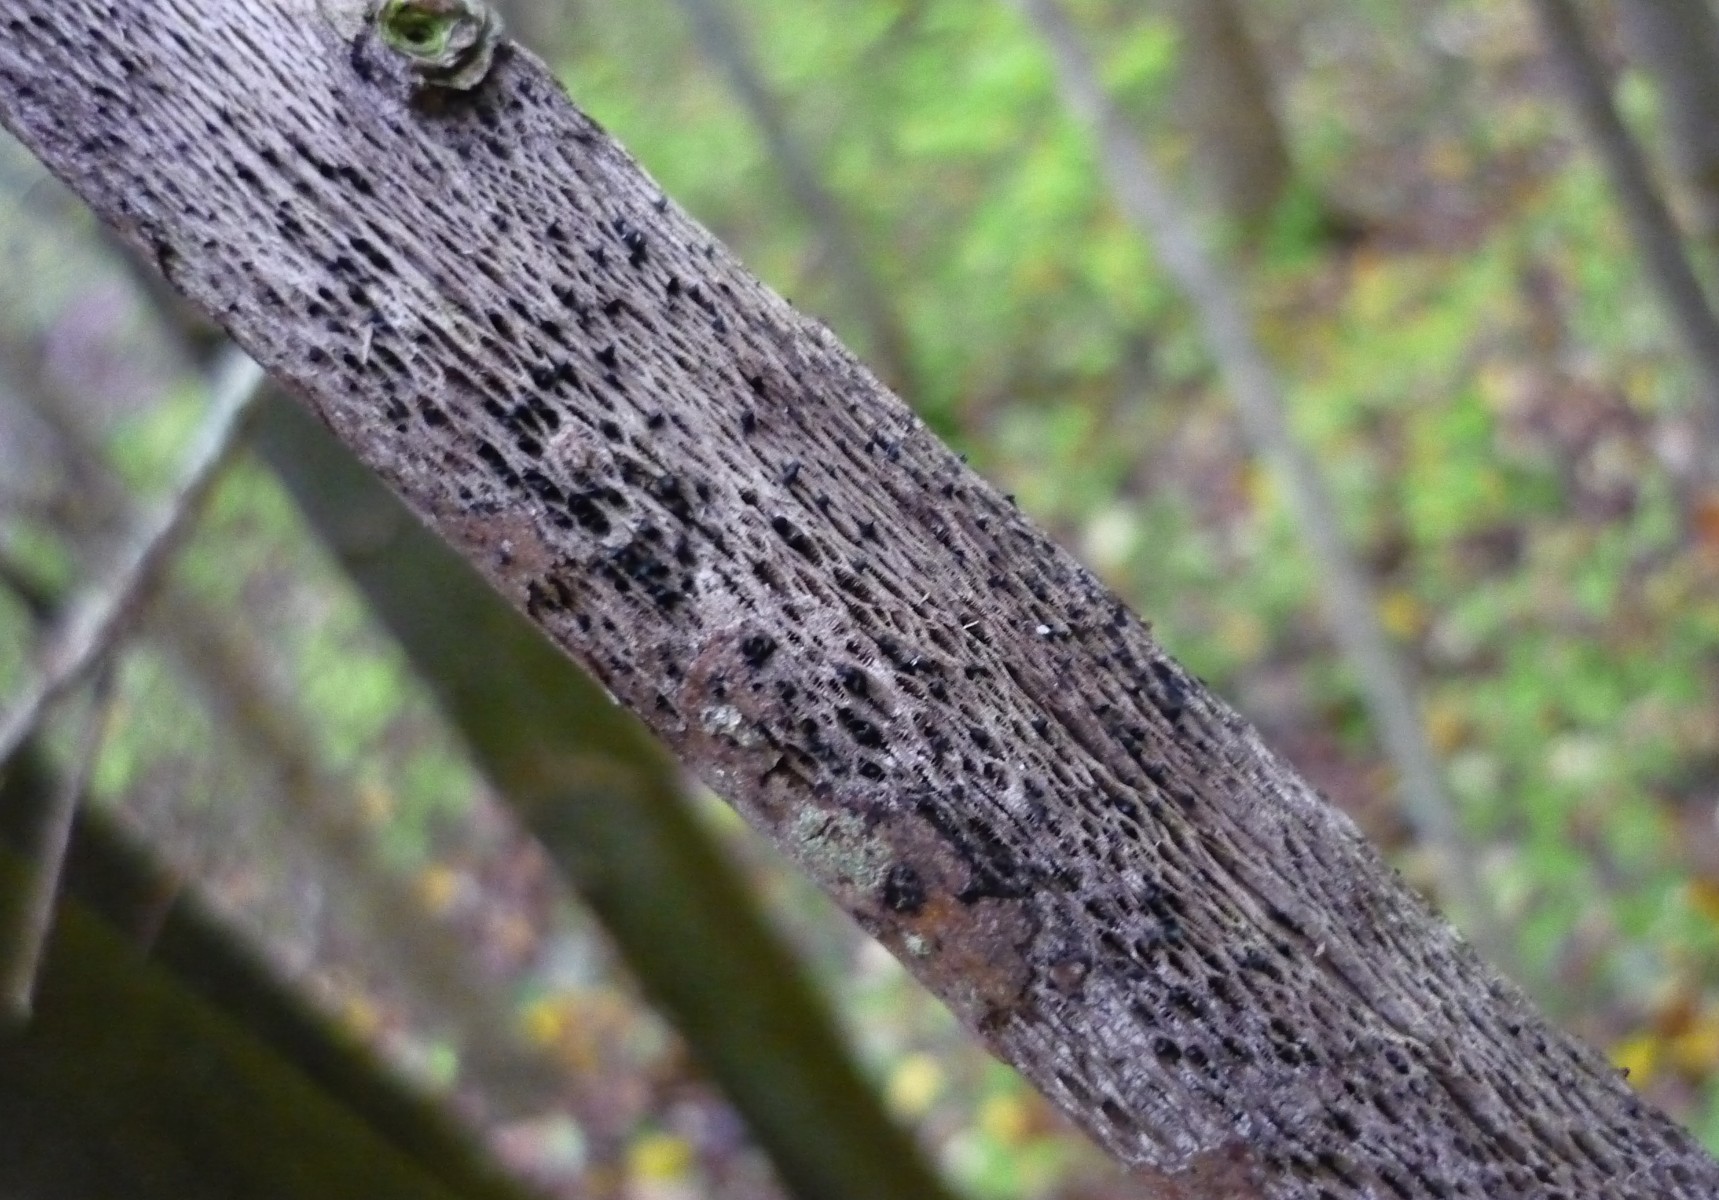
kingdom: Fungi
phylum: Ascomycota
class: Eurotiomycetes
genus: Glyphium
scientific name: Glyphium elatum
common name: kuløkse
